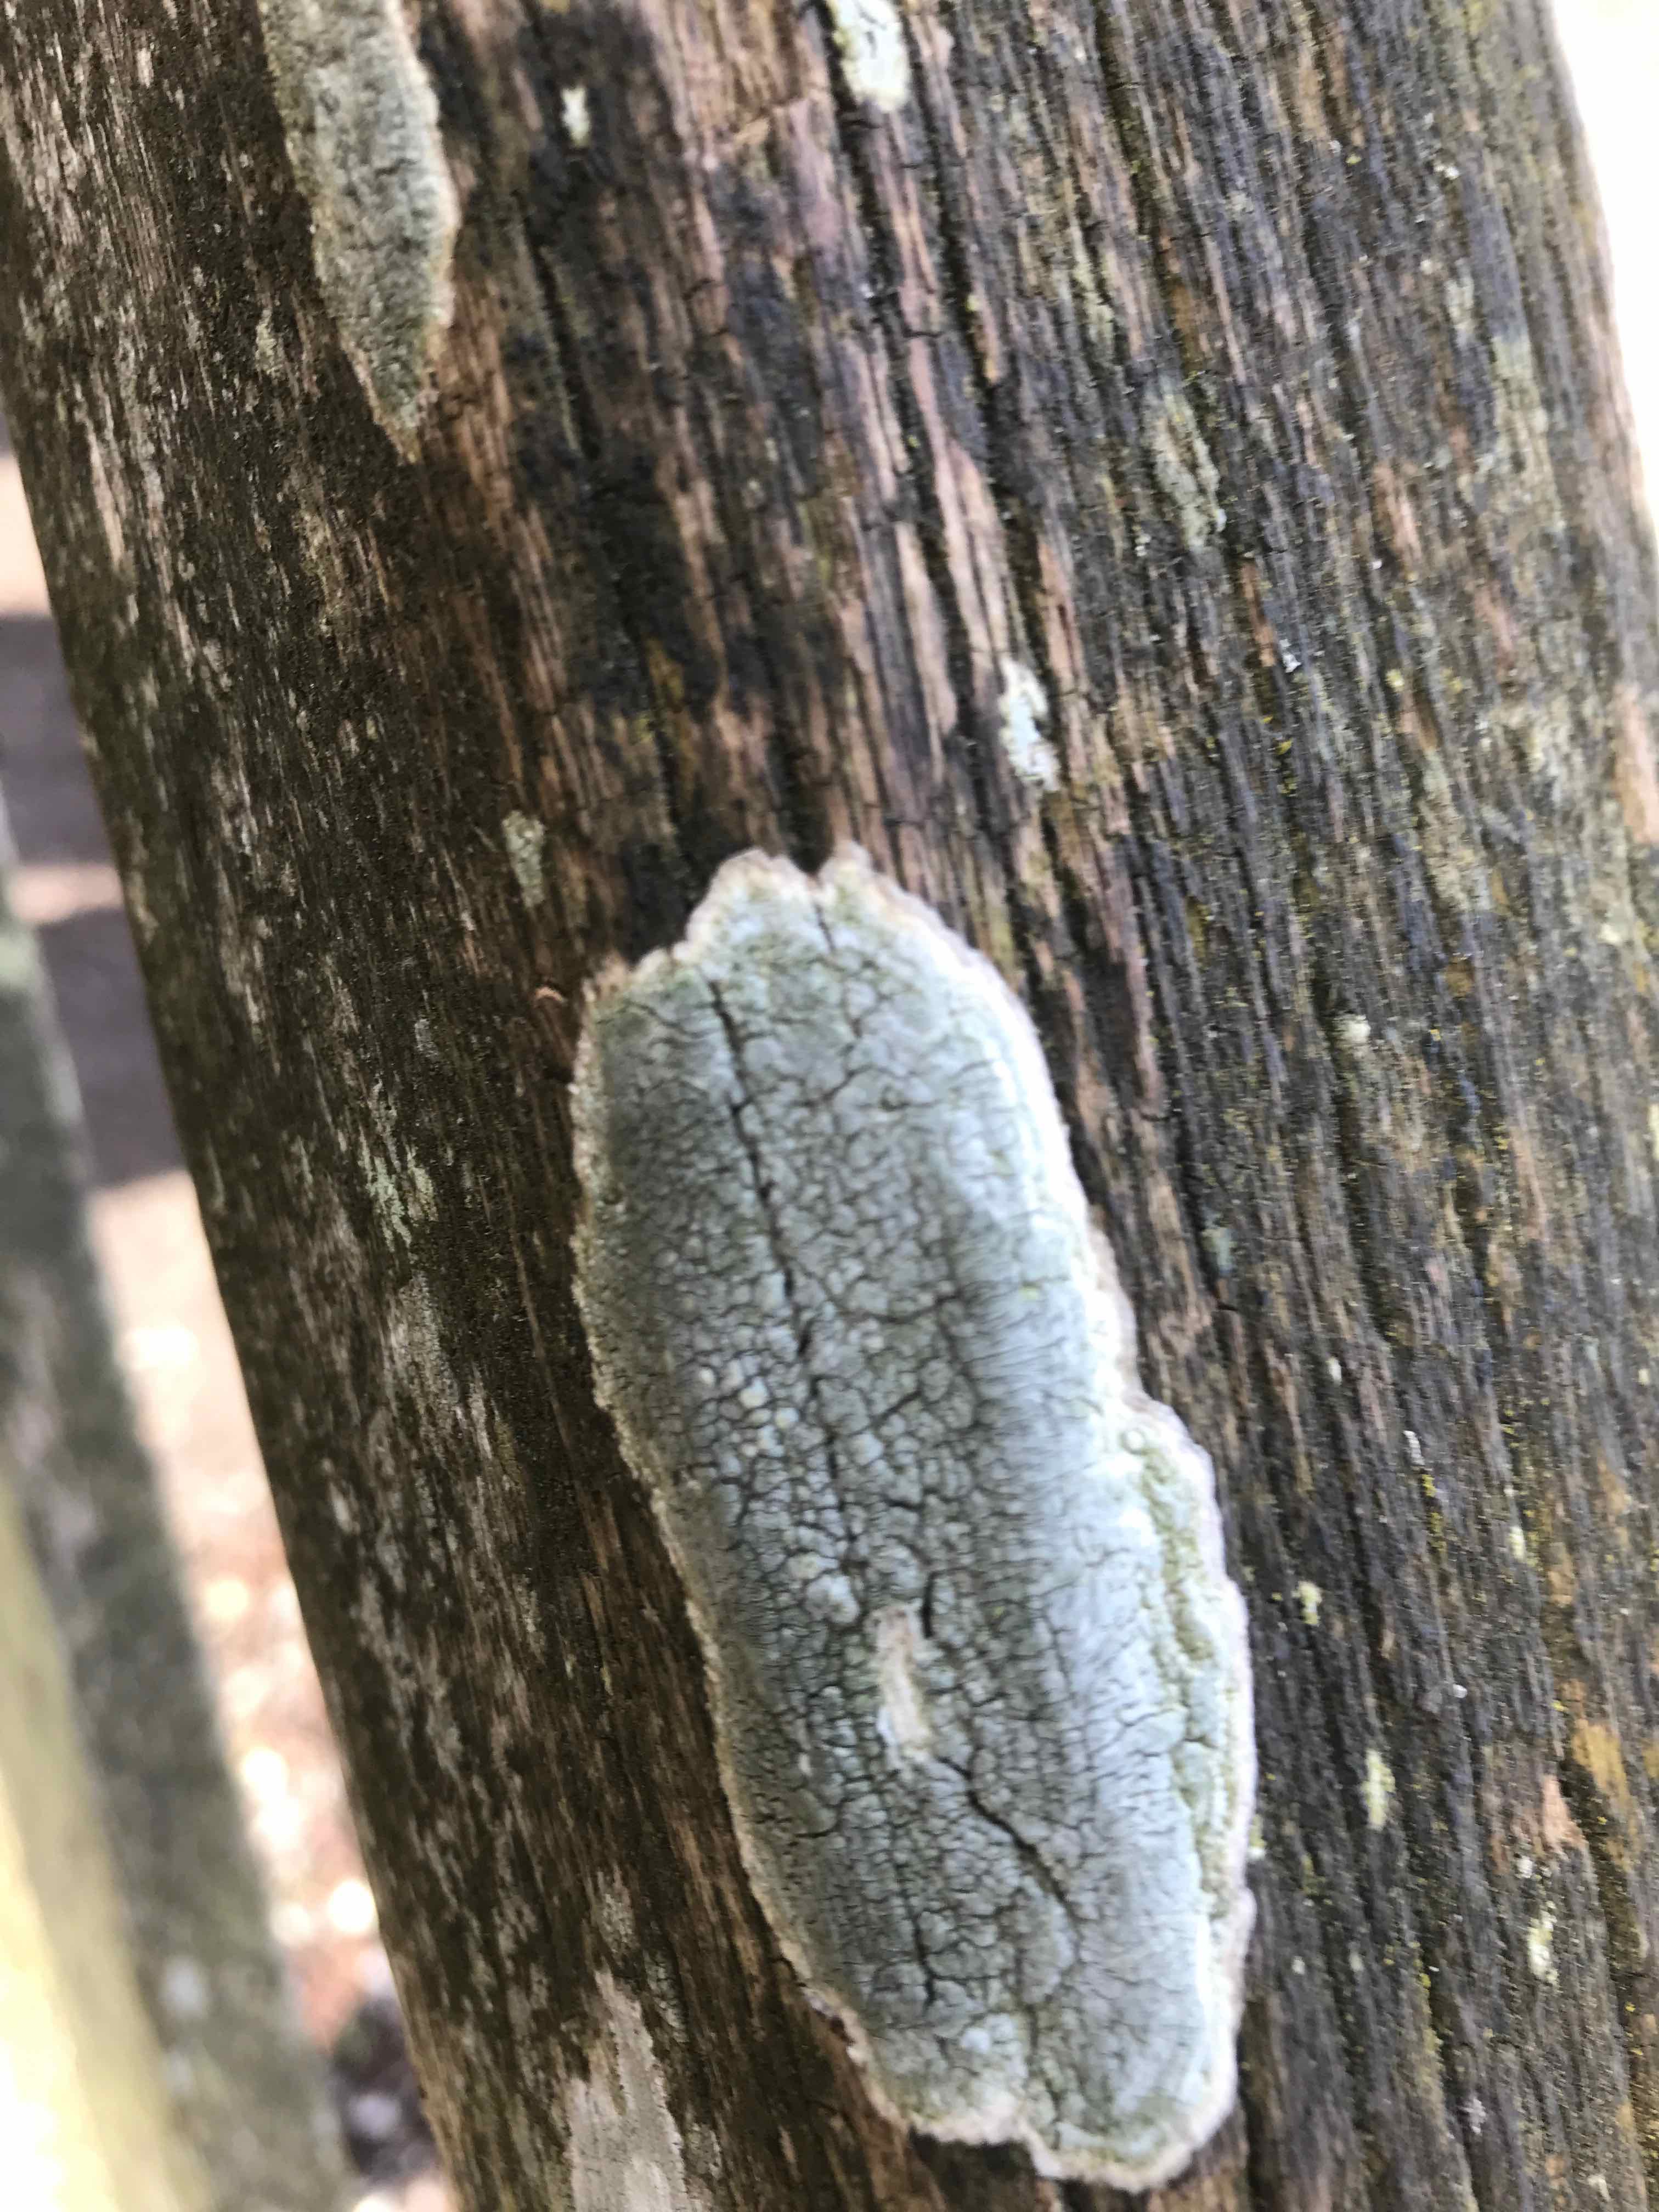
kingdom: Fungi
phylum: Ascomycota
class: Lecanoromycetes
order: Lecanorales
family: Haematommataceae
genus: Haematomma
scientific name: Haematomma ochroleucum
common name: gul trådkantlav
